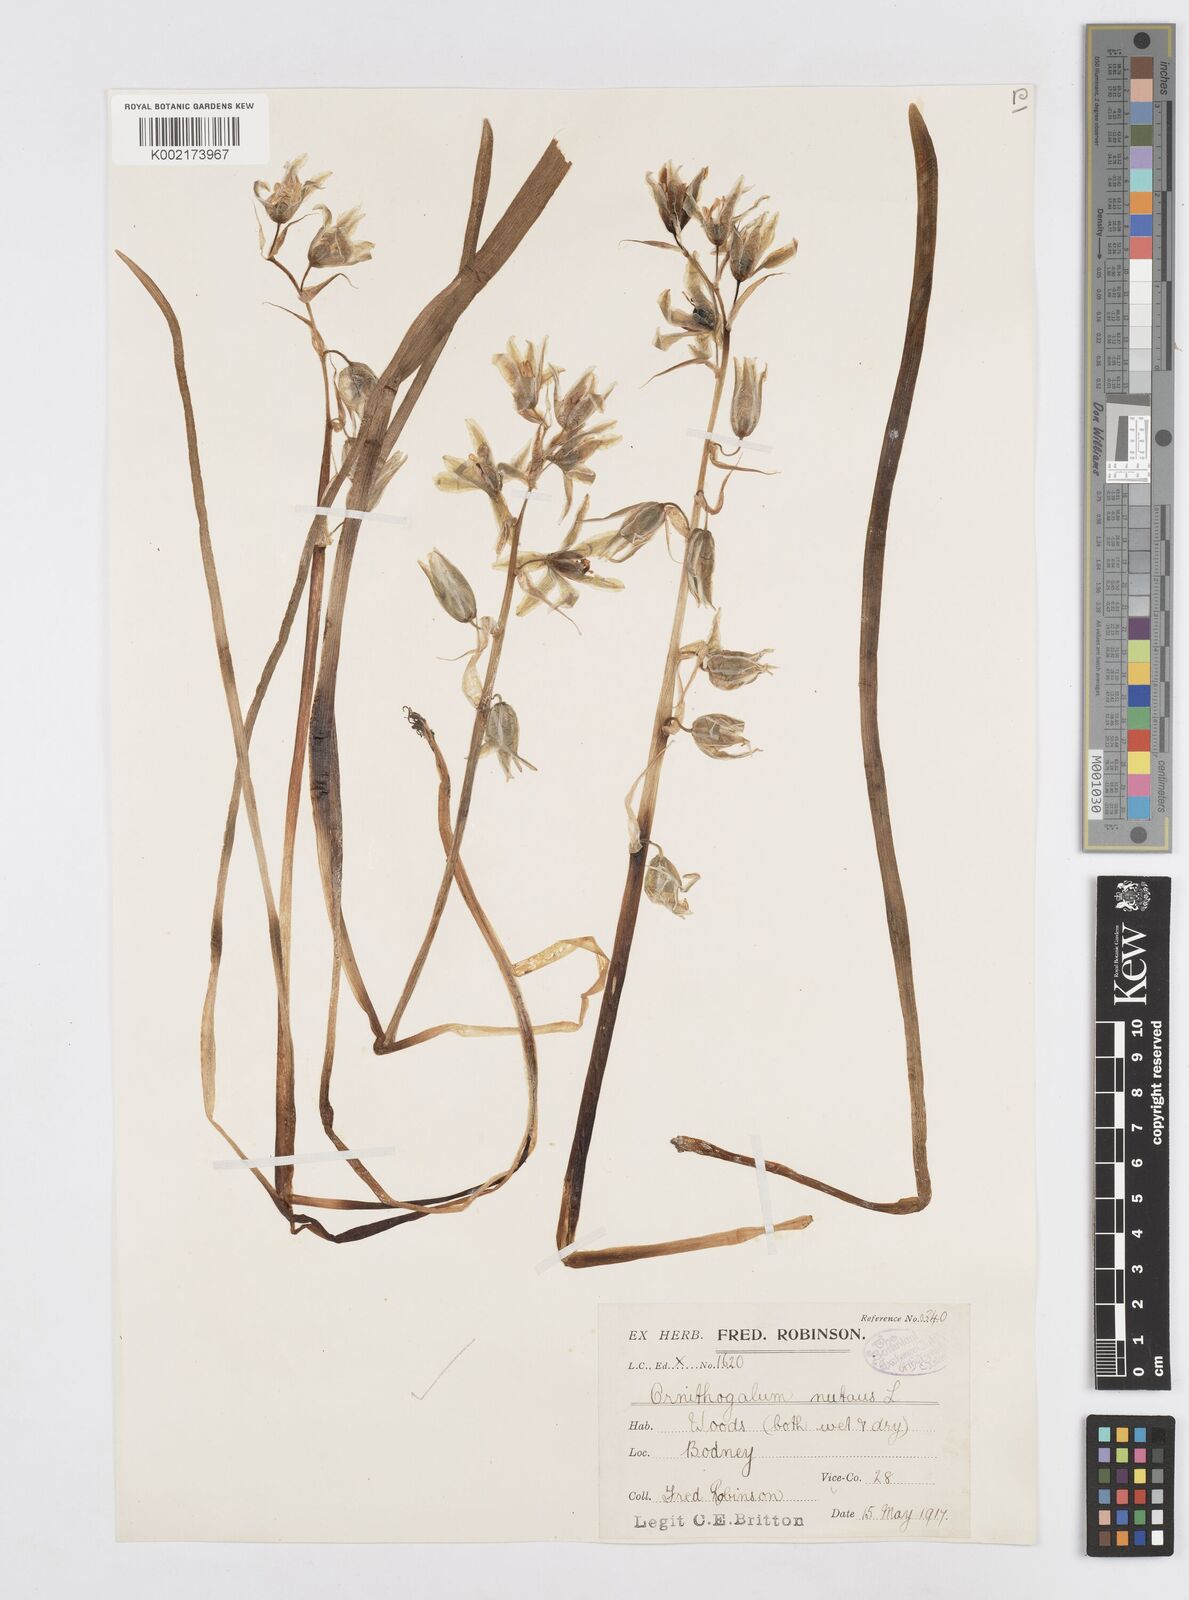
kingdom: Plantae
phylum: Tracheophyta
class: Liliopsida
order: Asparagales
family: Asparagaceae
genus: Ornithogalum
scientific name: Ornithogalum nutans
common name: Drooping star-of-bethlehem
